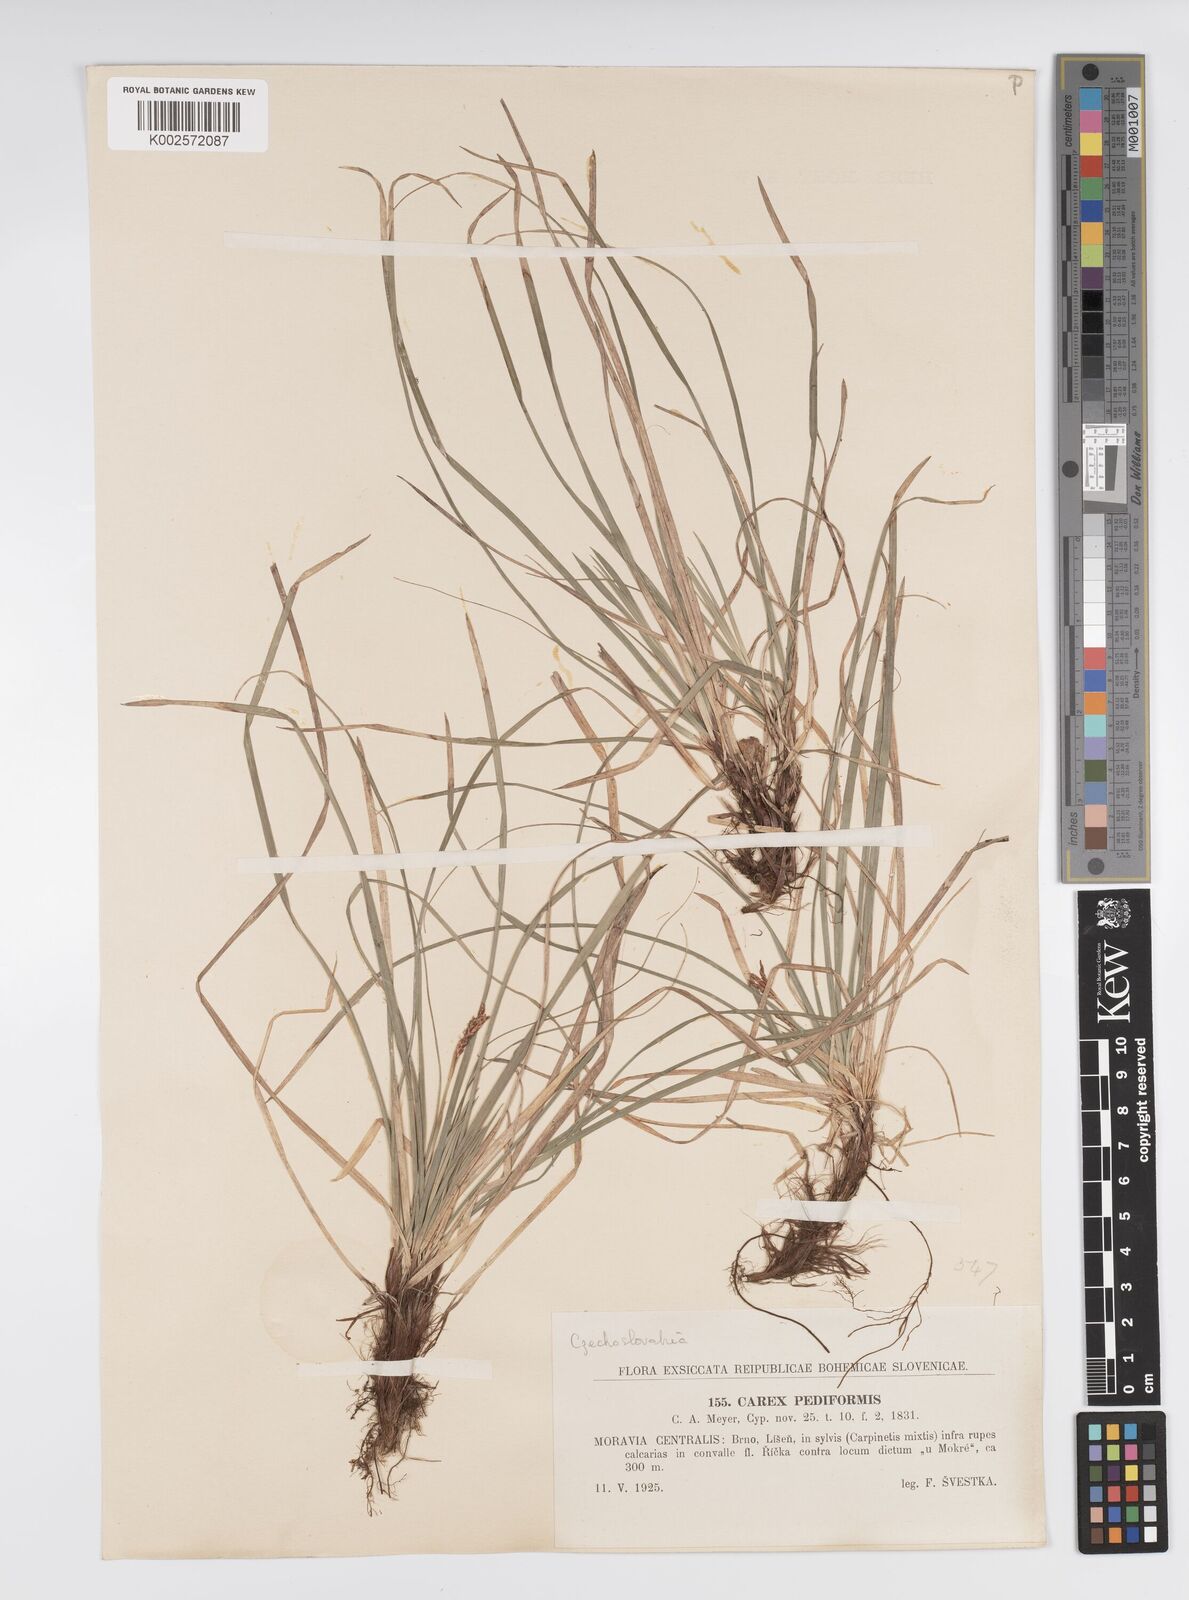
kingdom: Plantae
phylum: Tracheophyta
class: Liliopsida
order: Poales
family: Cyperaceae
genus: Carex
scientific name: Carex pediformis
